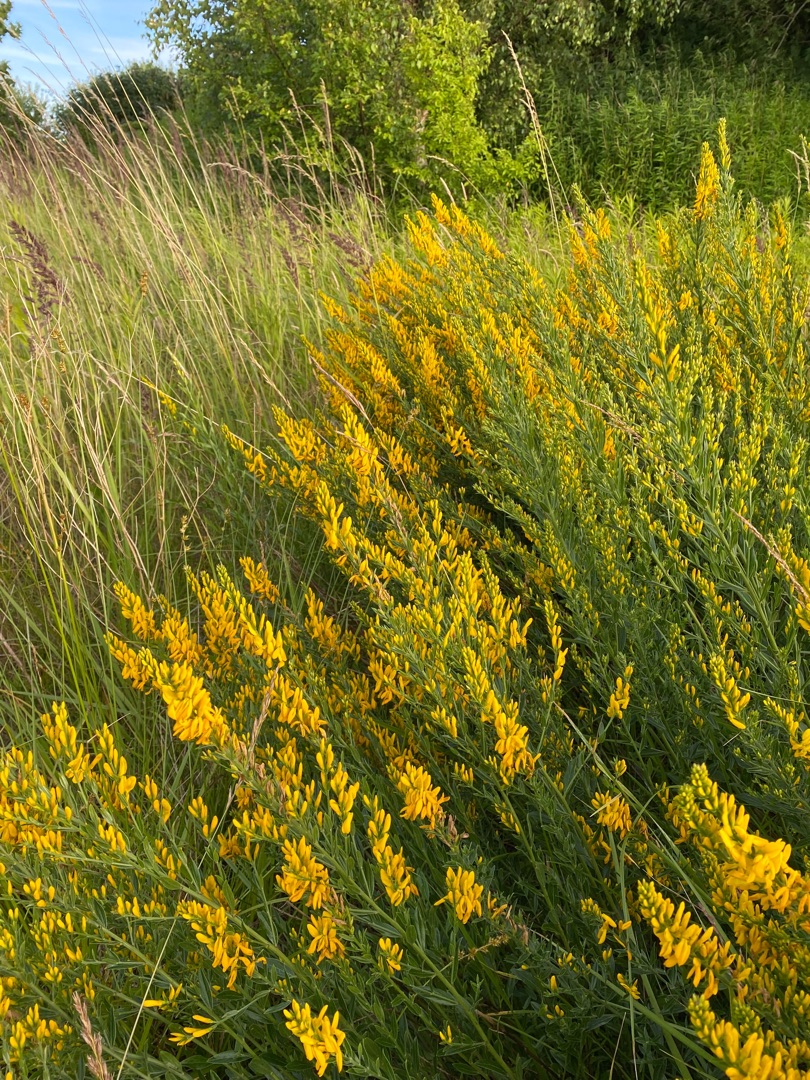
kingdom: Plantae
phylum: Tracheophyta
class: Magnoliopsida
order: Fabales
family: Fabaceae
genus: Genista
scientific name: Genista tinctoria
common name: Farve-visse
